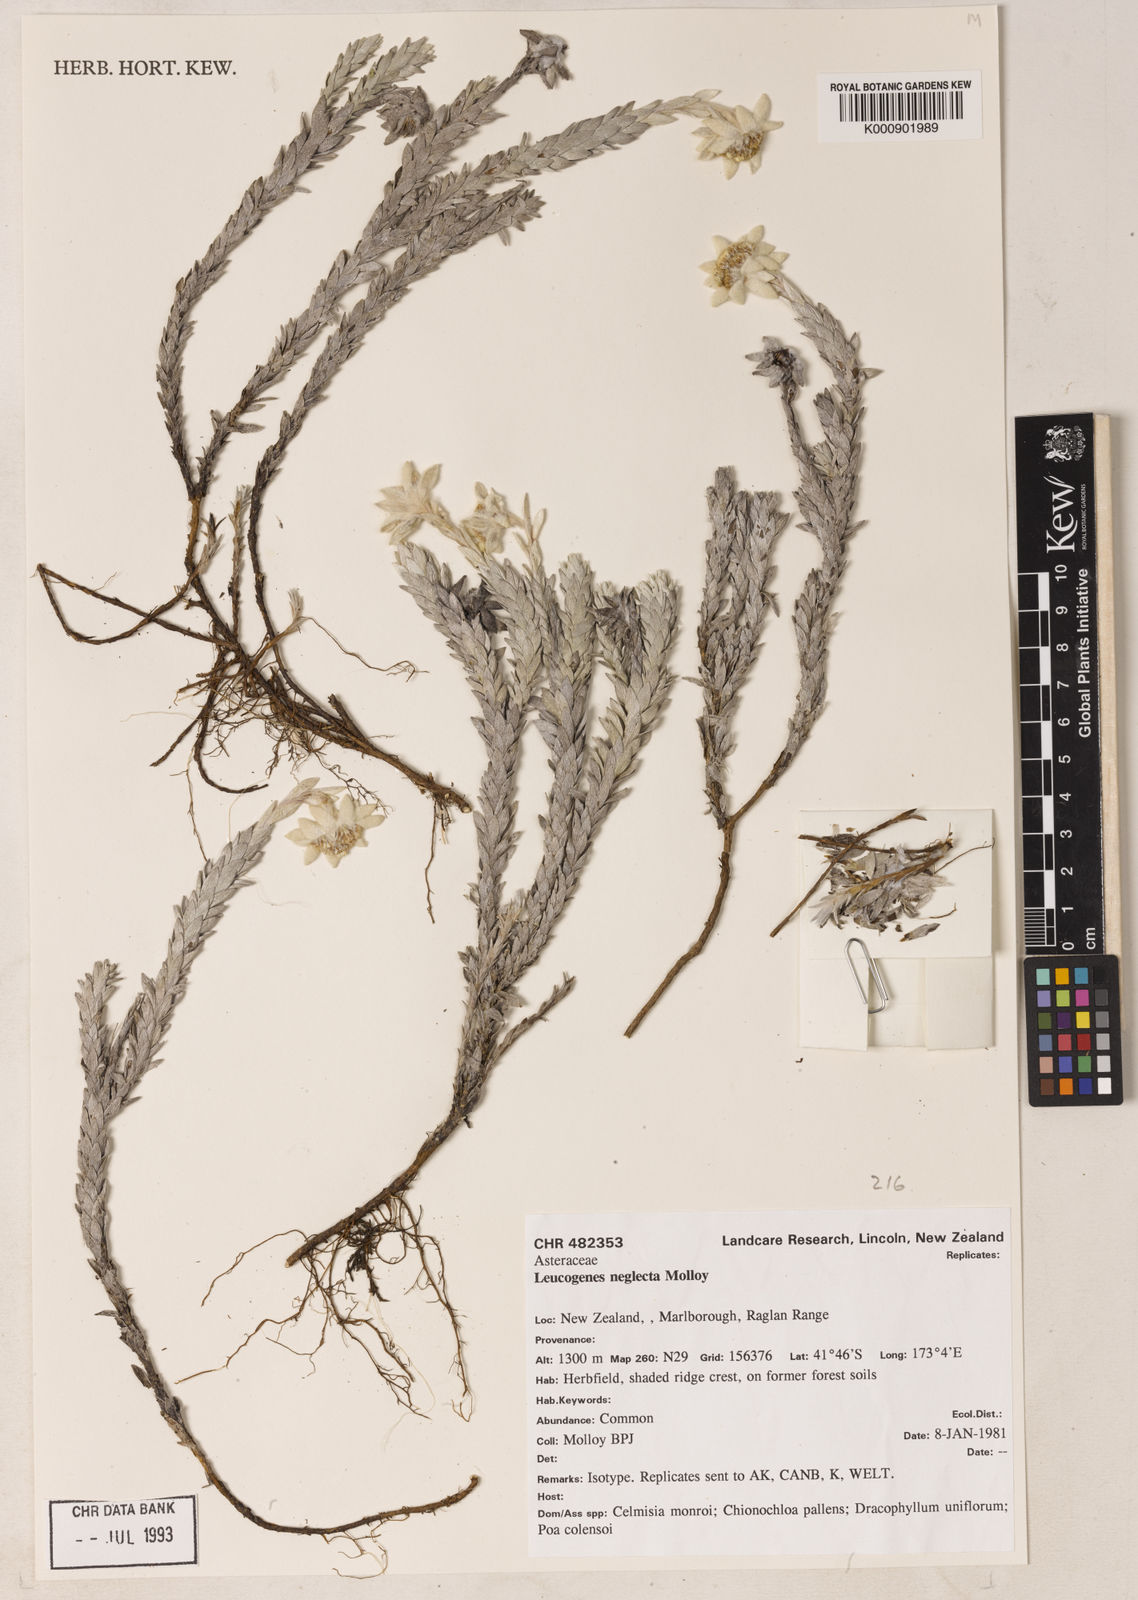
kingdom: Plantae
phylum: Tracheophyta
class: Magnoliopsida
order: Asterales
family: Asteraceae
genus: Leucogenes
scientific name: Leucogenes neglecta
